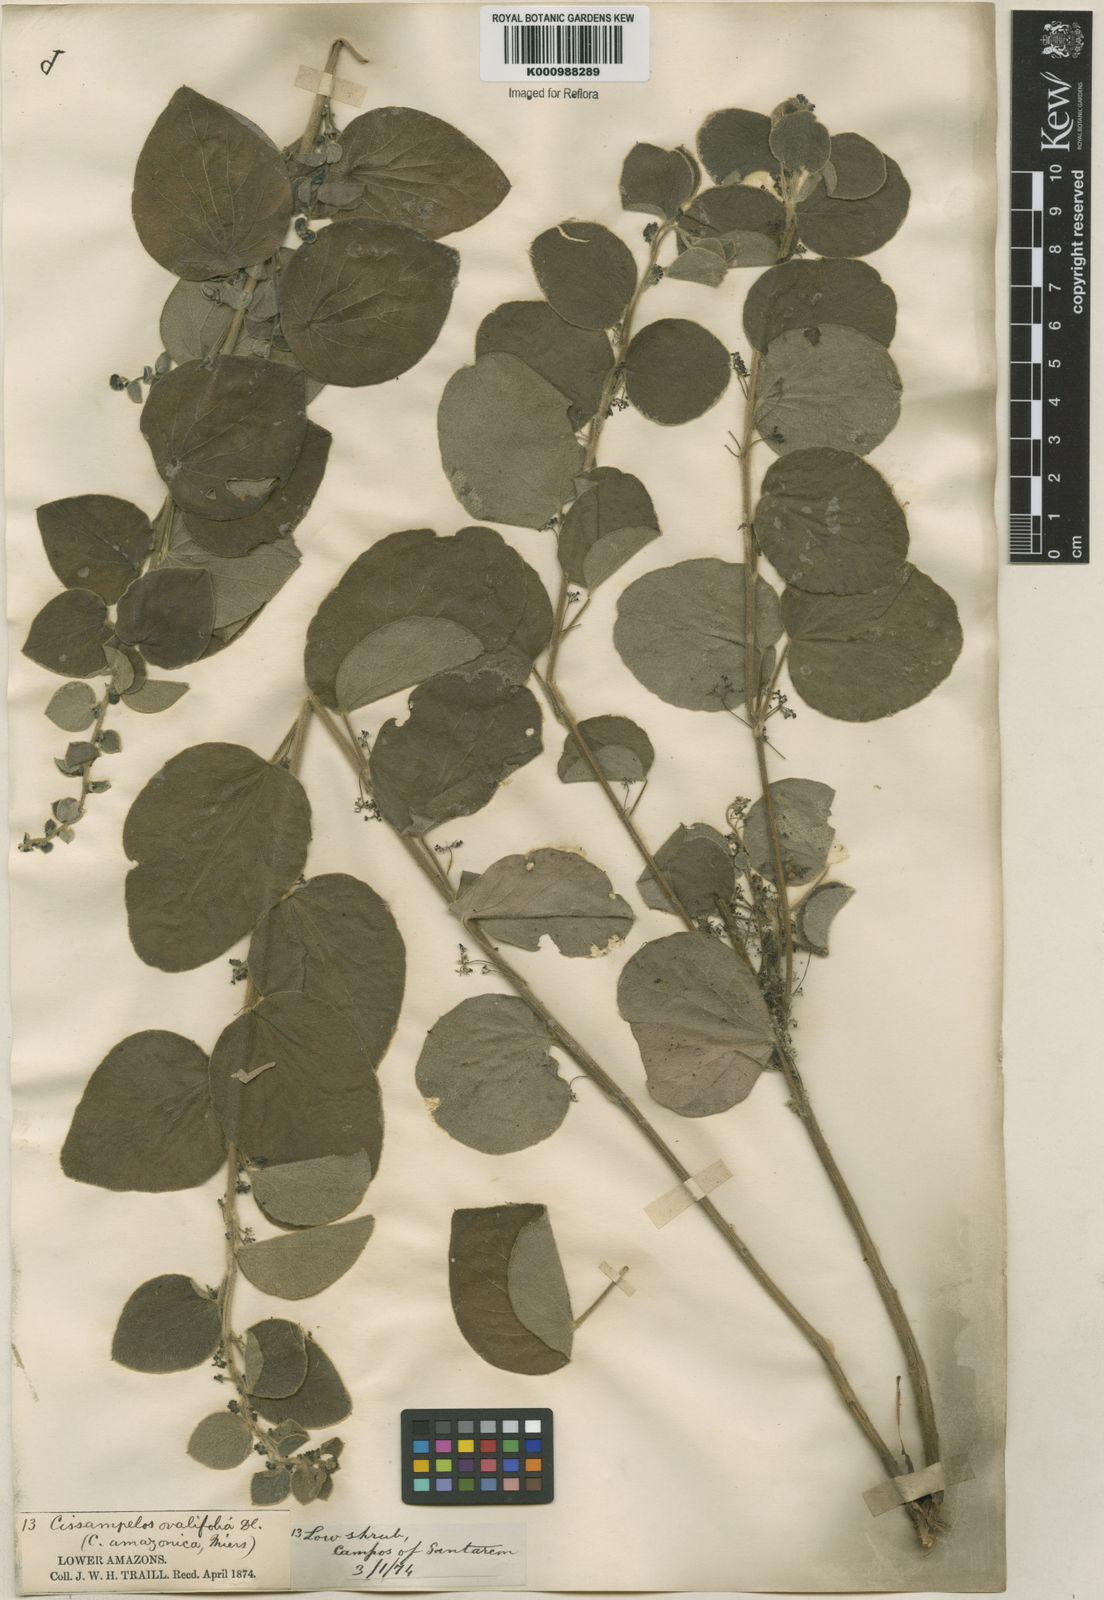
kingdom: Plantae
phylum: Tracheophyta
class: Magnoliopsida
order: Ranunculales
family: Menispermaceae
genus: Cissampelos
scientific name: Cissampelos ovalifolia
